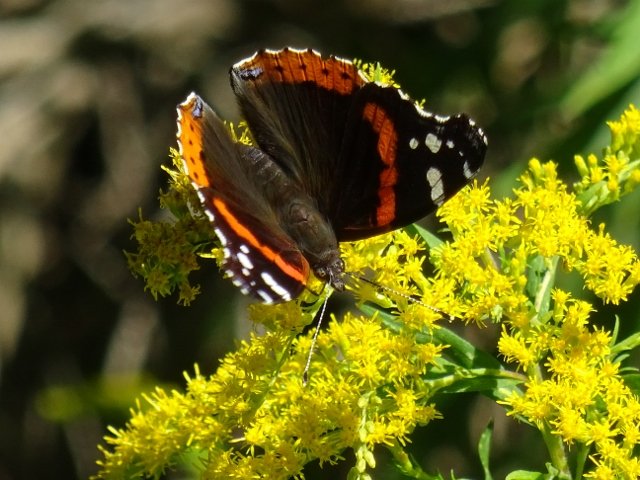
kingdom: Animalia
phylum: Arthropoda
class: Insecta
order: Lepidoptera
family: Nymphalidae
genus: Vanessa
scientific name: Vanessa atalanta
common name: Red Admiral
